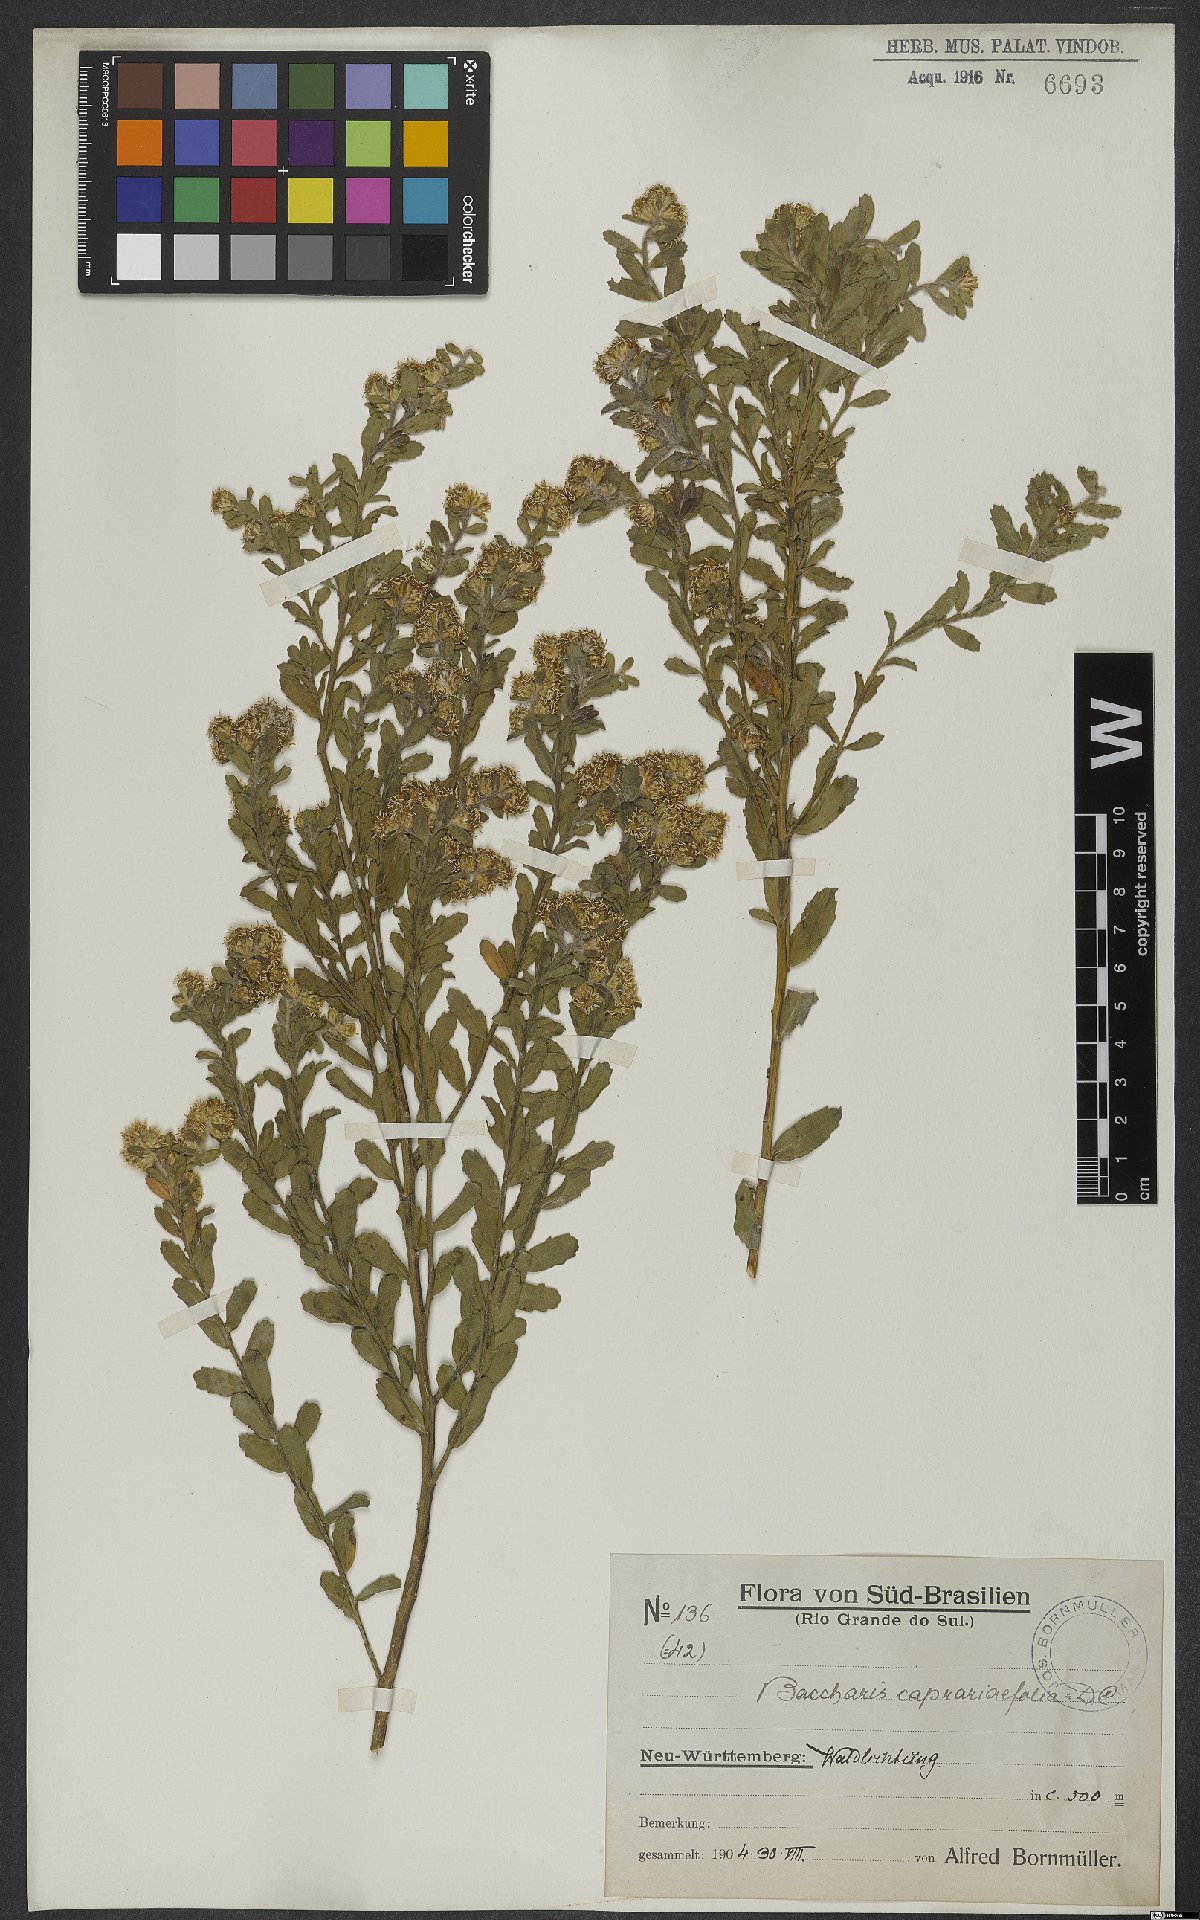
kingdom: Plantae
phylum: Tracheophyta
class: Magnoliopsida
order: Asterales
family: Asteraceae
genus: Baccharis
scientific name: Baccharis caprariifolia
